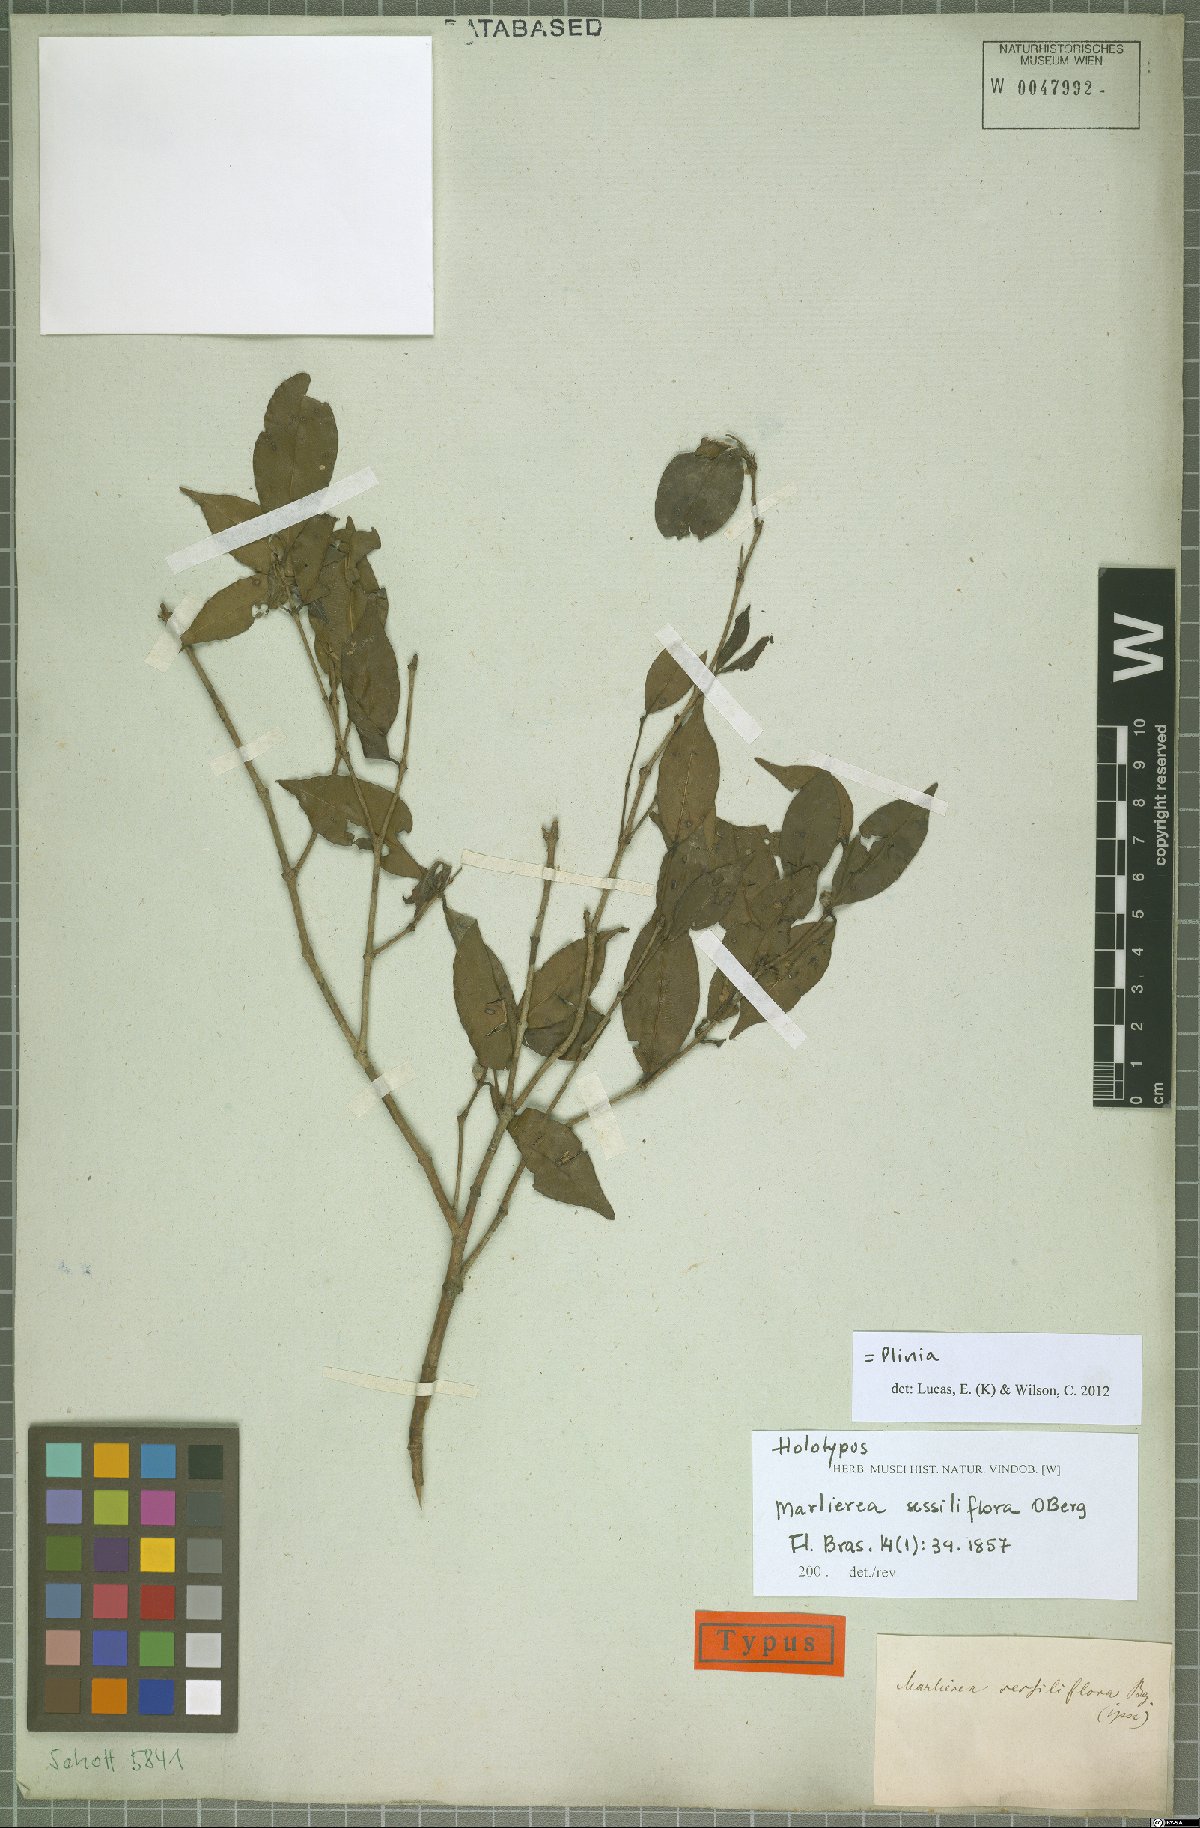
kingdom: Plantae
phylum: Tracheophyta
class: Magnoliopsida
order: Myrtales
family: Myrtaceae
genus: Plinia
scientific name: Plinia
